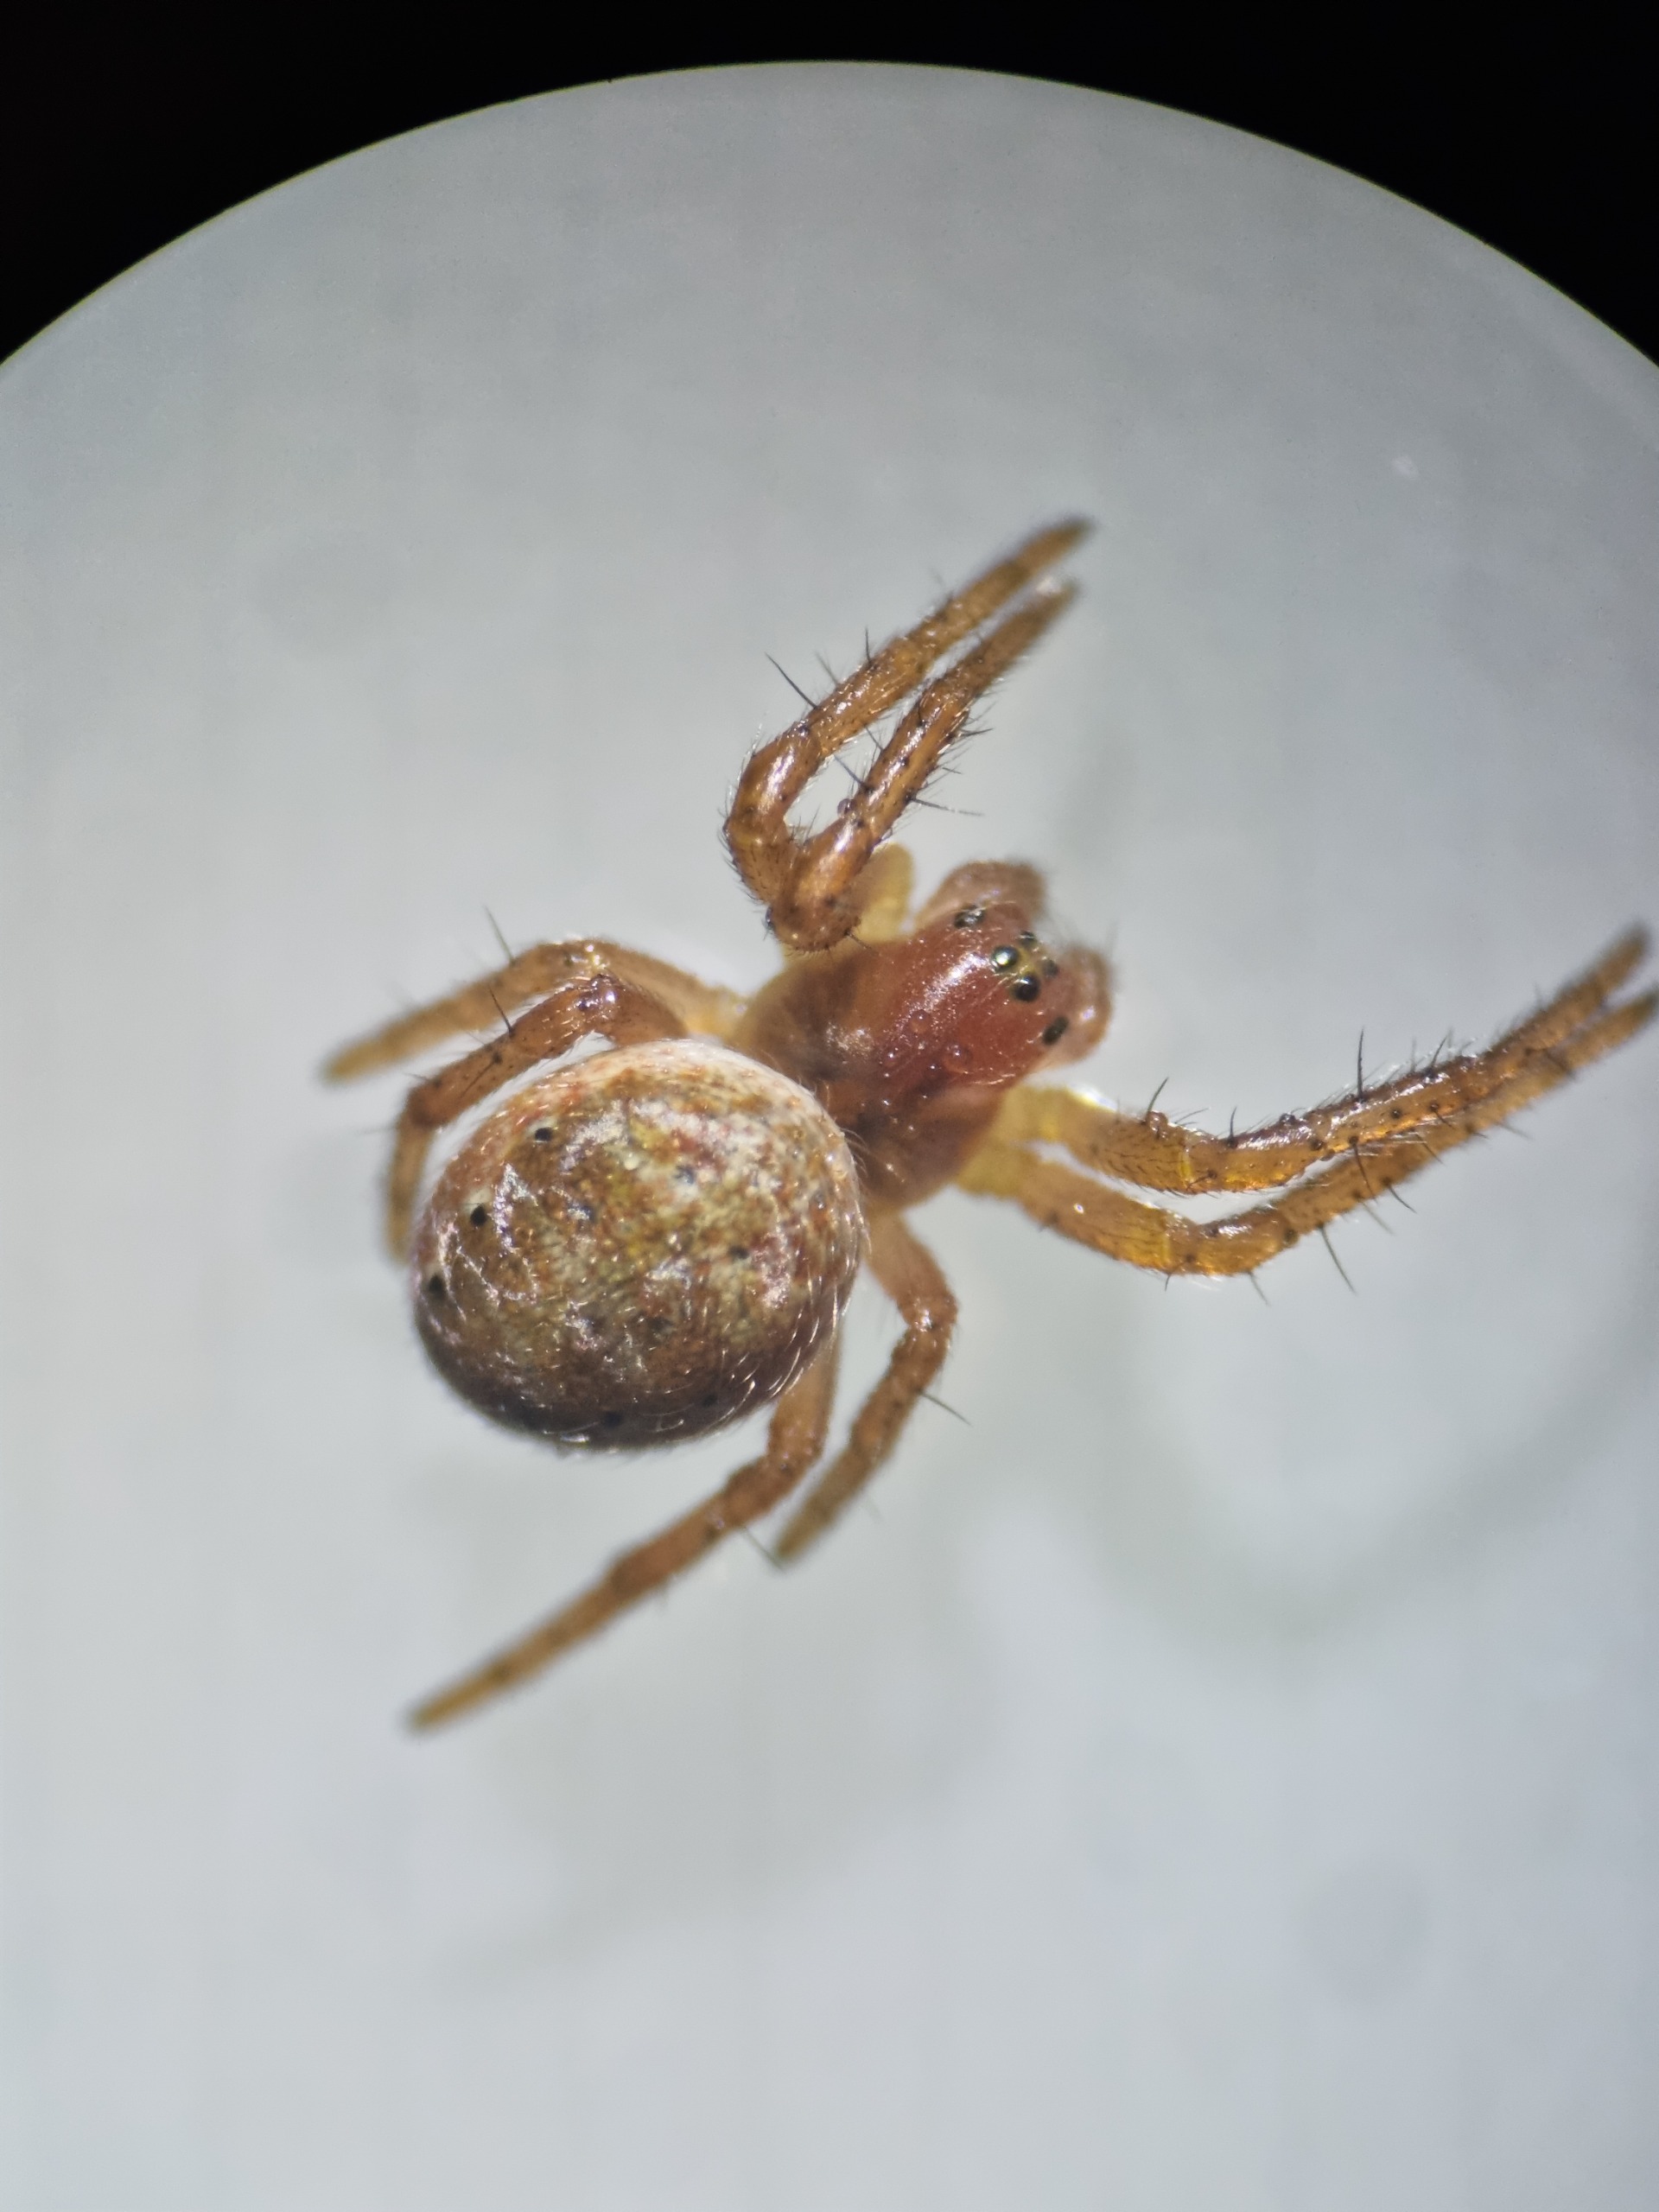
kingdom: Animalia
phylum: Arthropoda
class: Arachnida
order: Araneae
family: Araneidae
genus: Araniella
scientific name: Araniella
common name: Agurkeedderkopslægten
